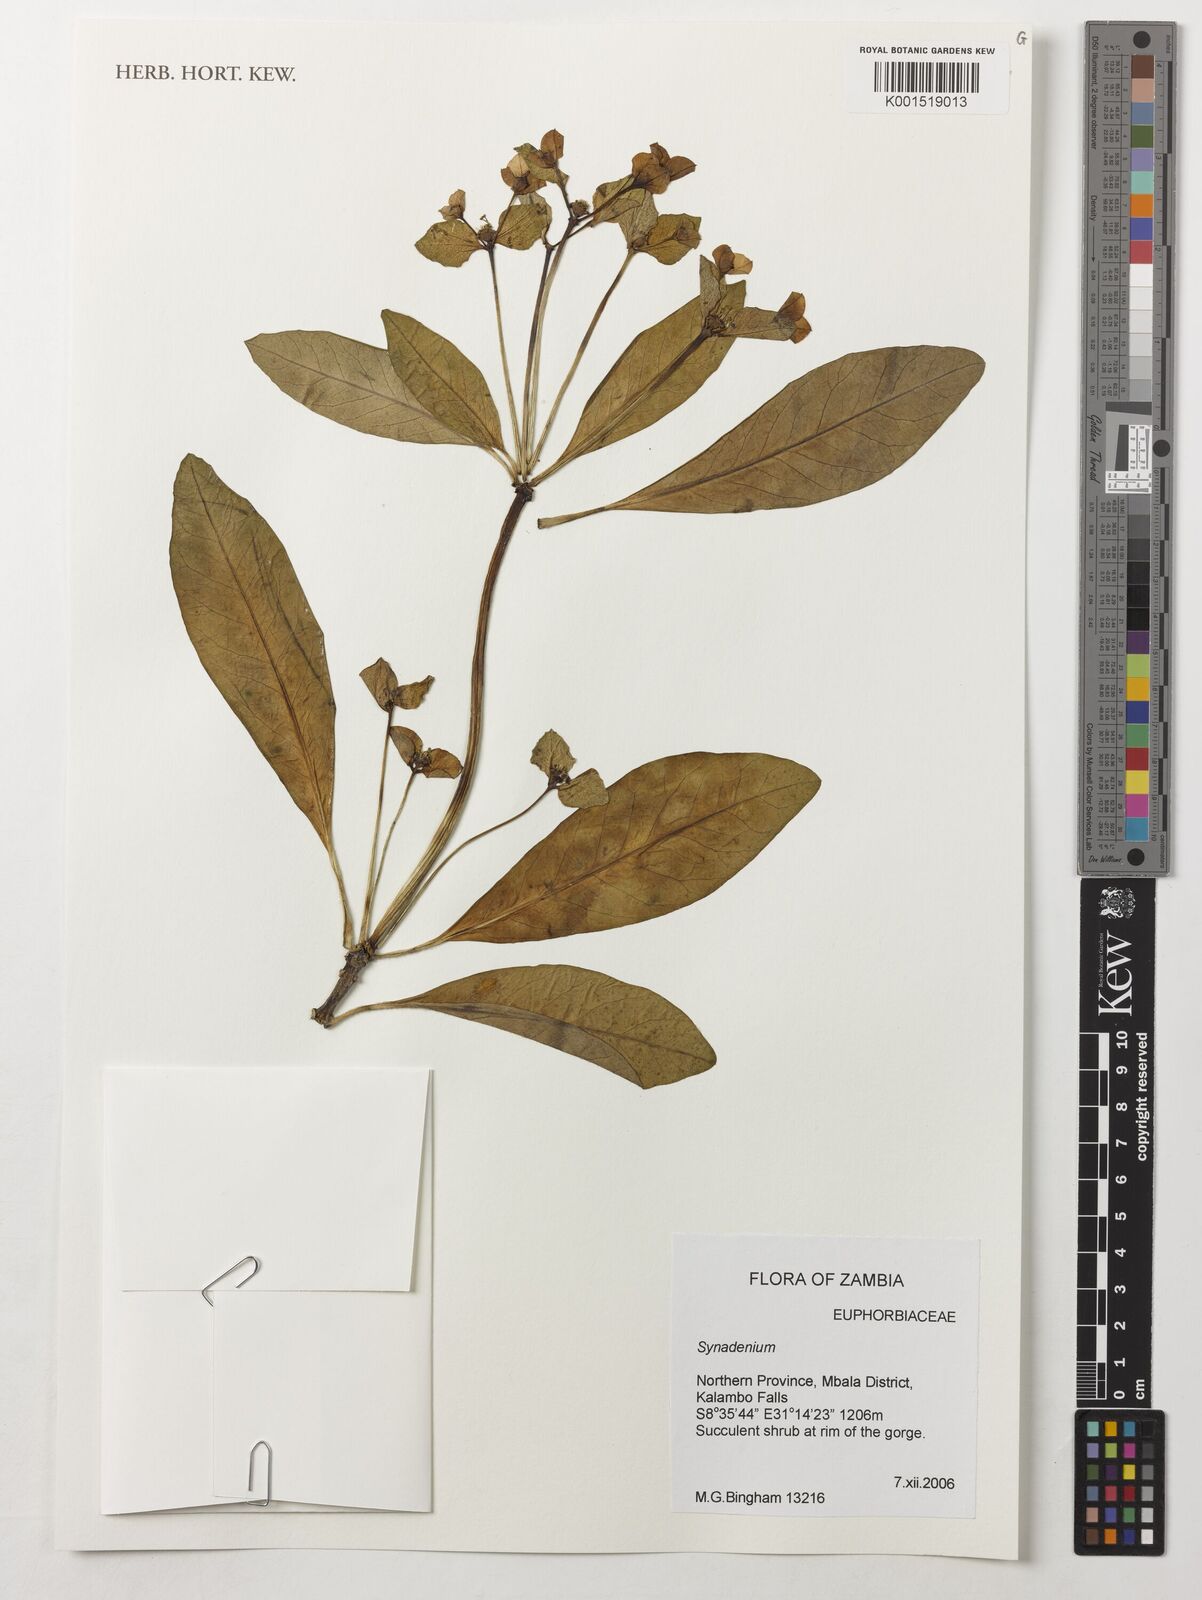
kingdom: Plantae
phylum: Tracheophyta
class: Magnoliopsida
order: Malpighiales
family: Euphorbiaceae
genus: Euphorbia
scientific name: Euphorbia transvaalensis
